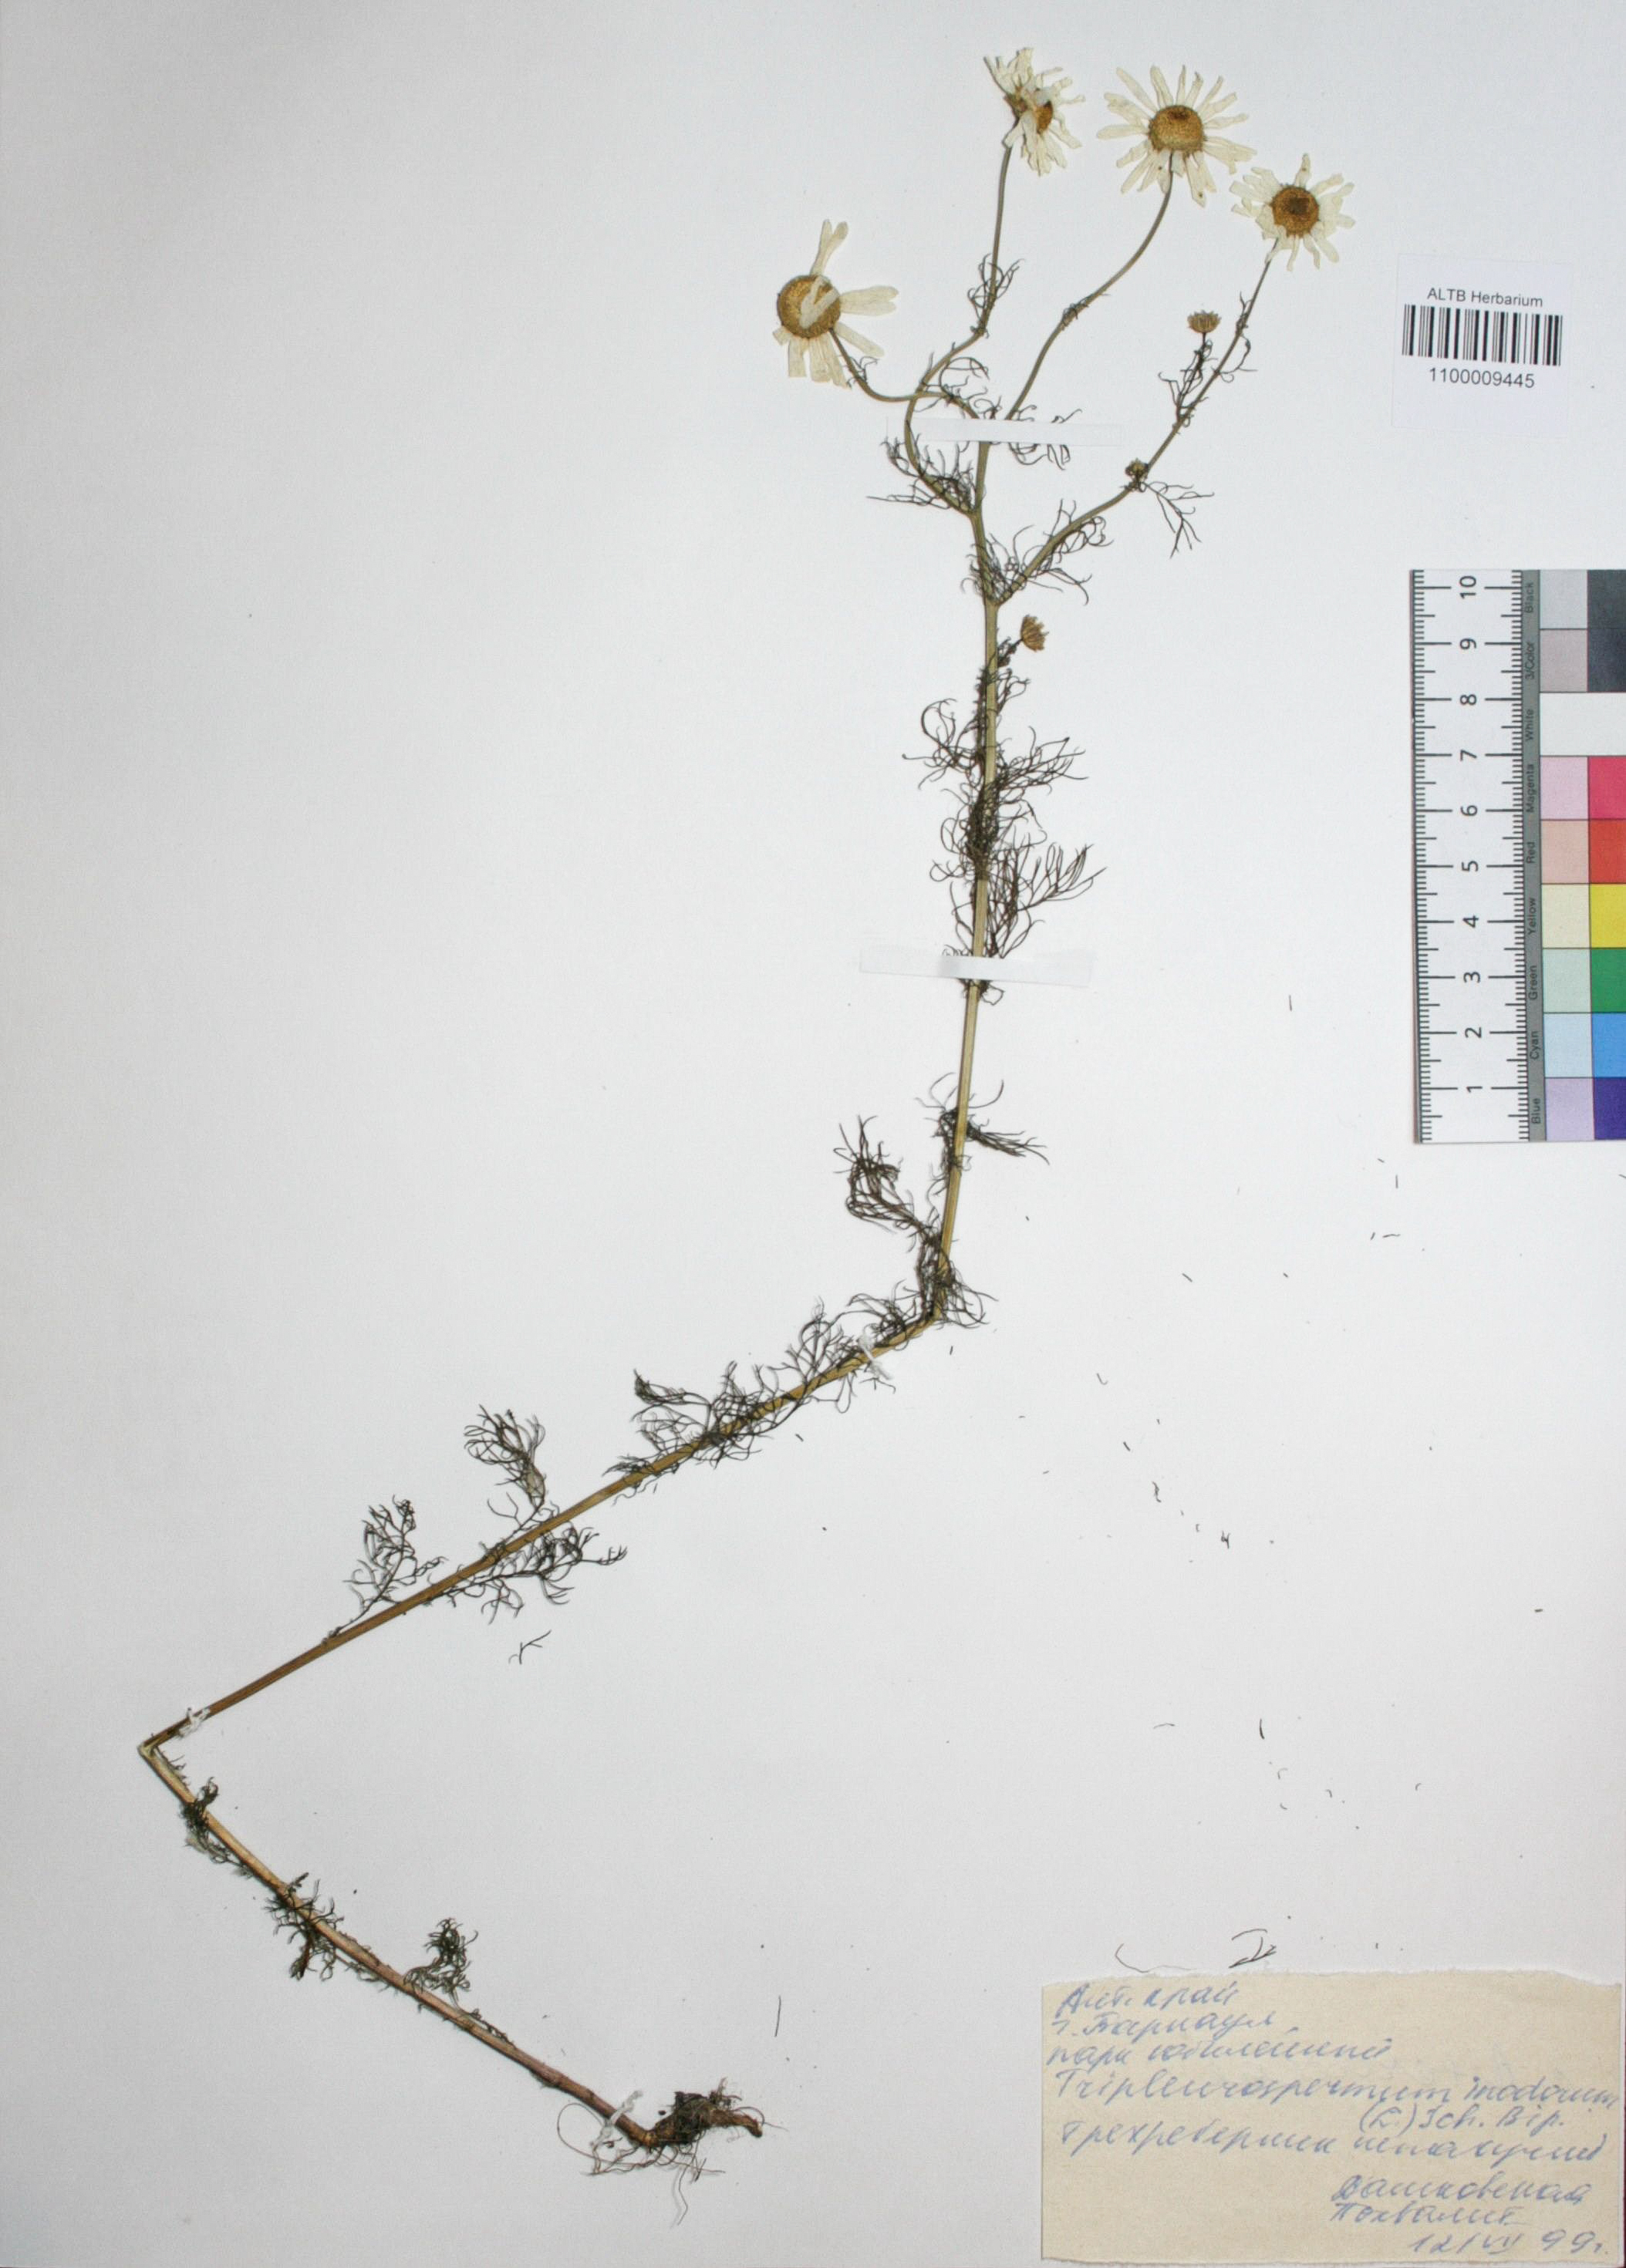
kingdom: Plantae
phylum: Tracheophyta
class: Magnoliopsida
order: Asterales
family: Asteraceae
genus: Tripleurospermum
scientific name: Tripleurospermum inodorum
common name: Scentless mayweed
